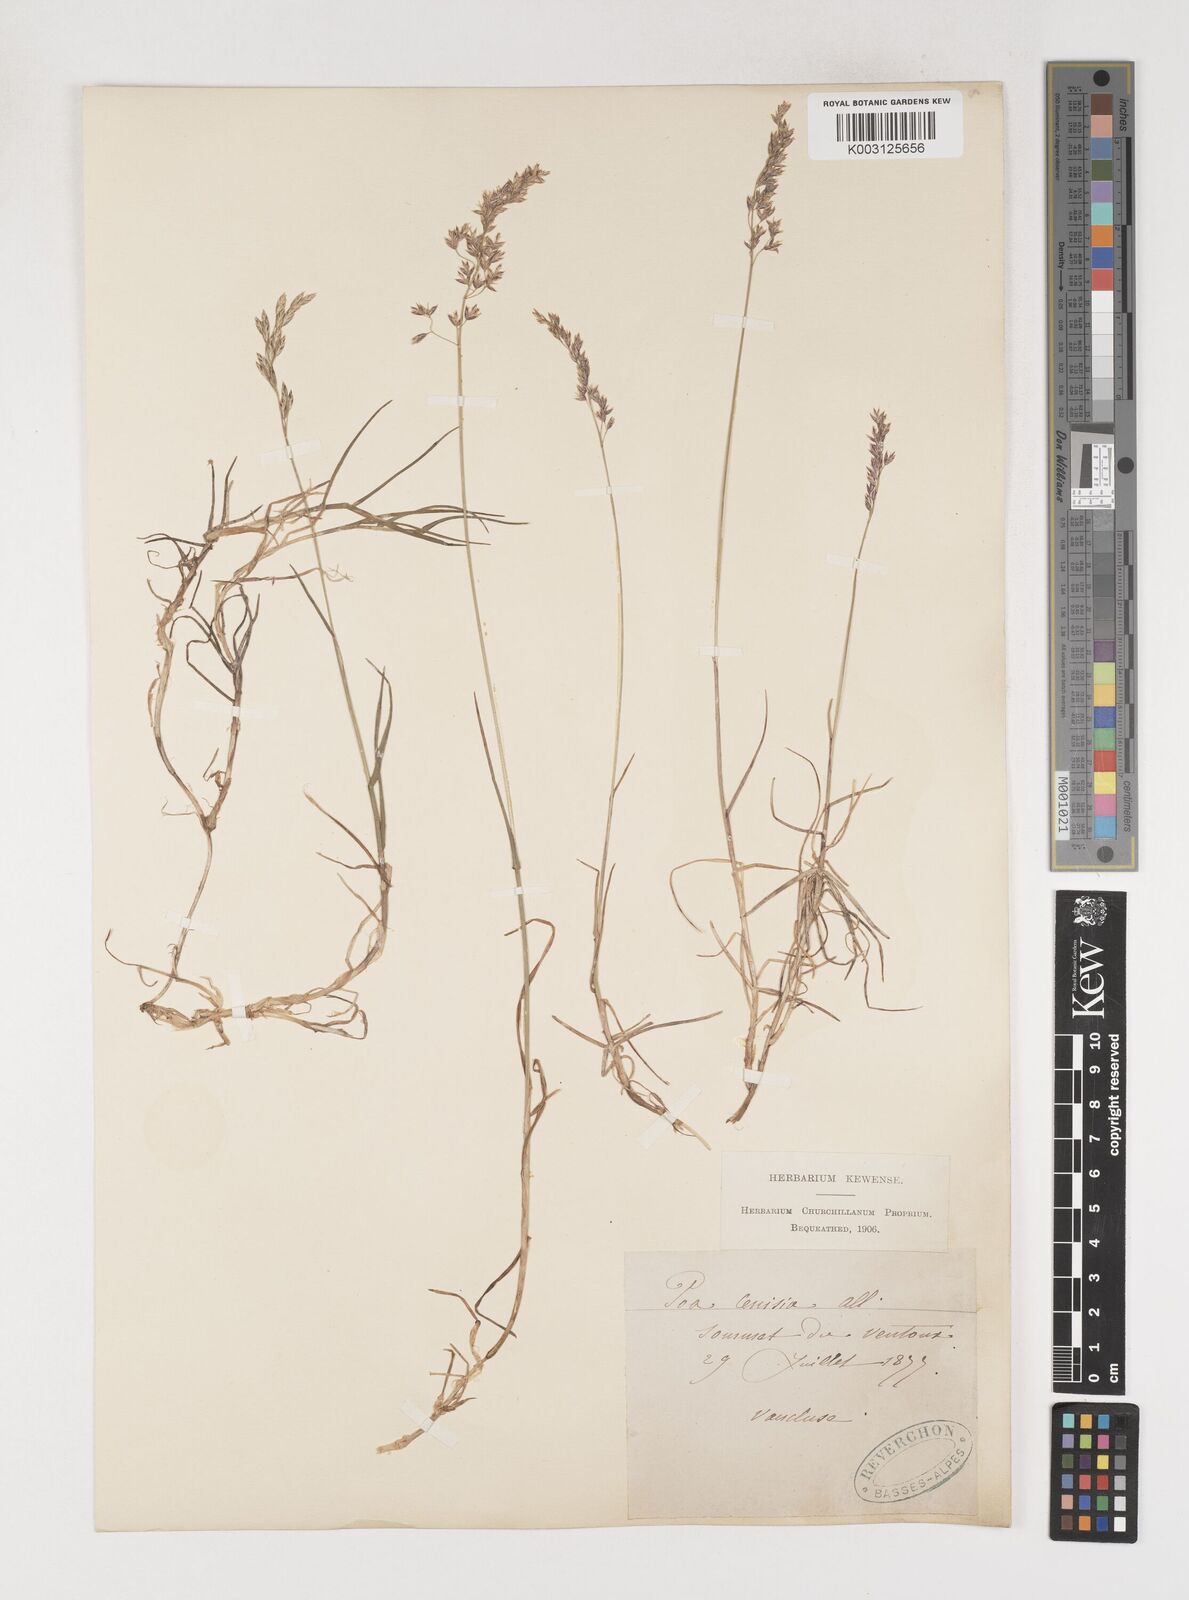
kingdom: Plantae
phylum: Tracheophyta
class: Liliopsida
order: Poales
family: Poaceae
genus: Poa
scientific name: Poa
